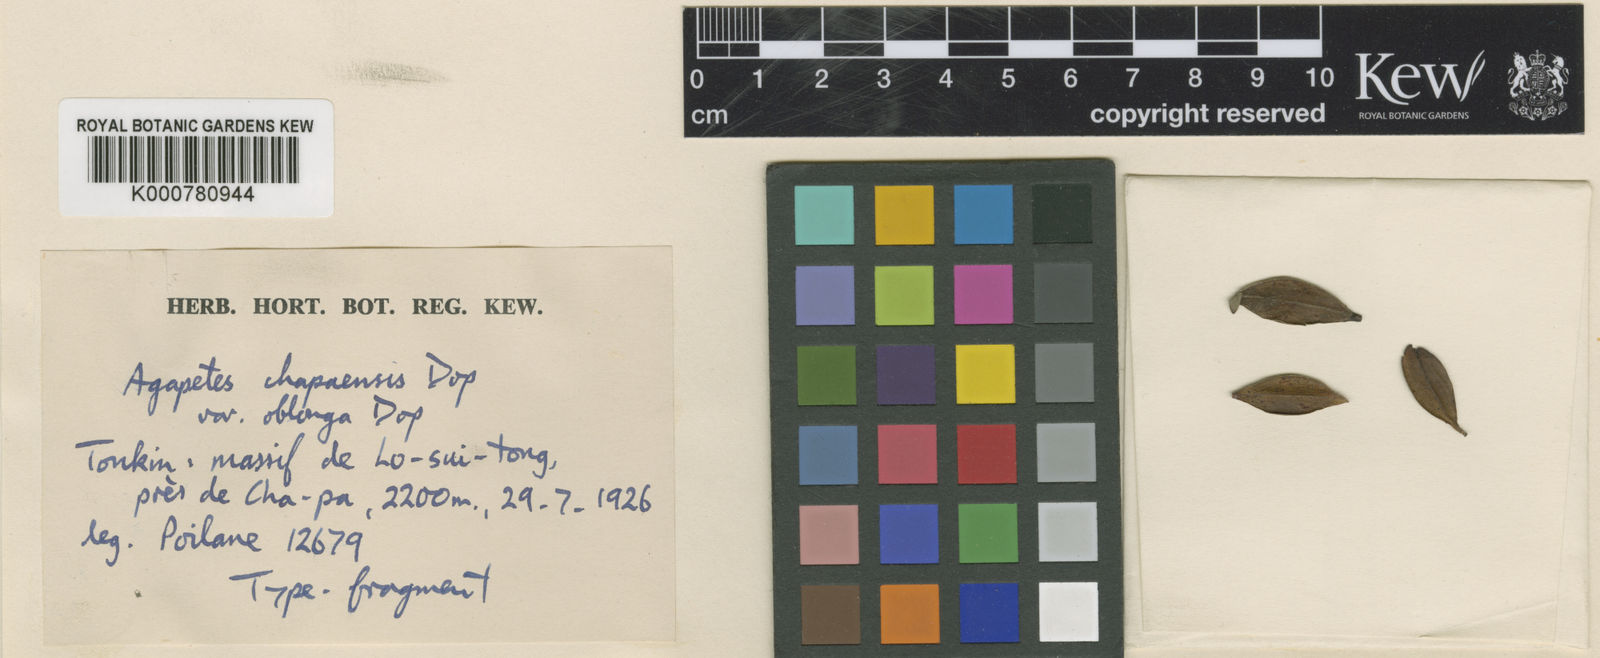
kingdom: Plantae
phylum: Tracheophyta
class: Magnoliopsida
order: Ericales
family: Ericaceae
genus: Agapetes
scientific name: Agapetes lobbii
